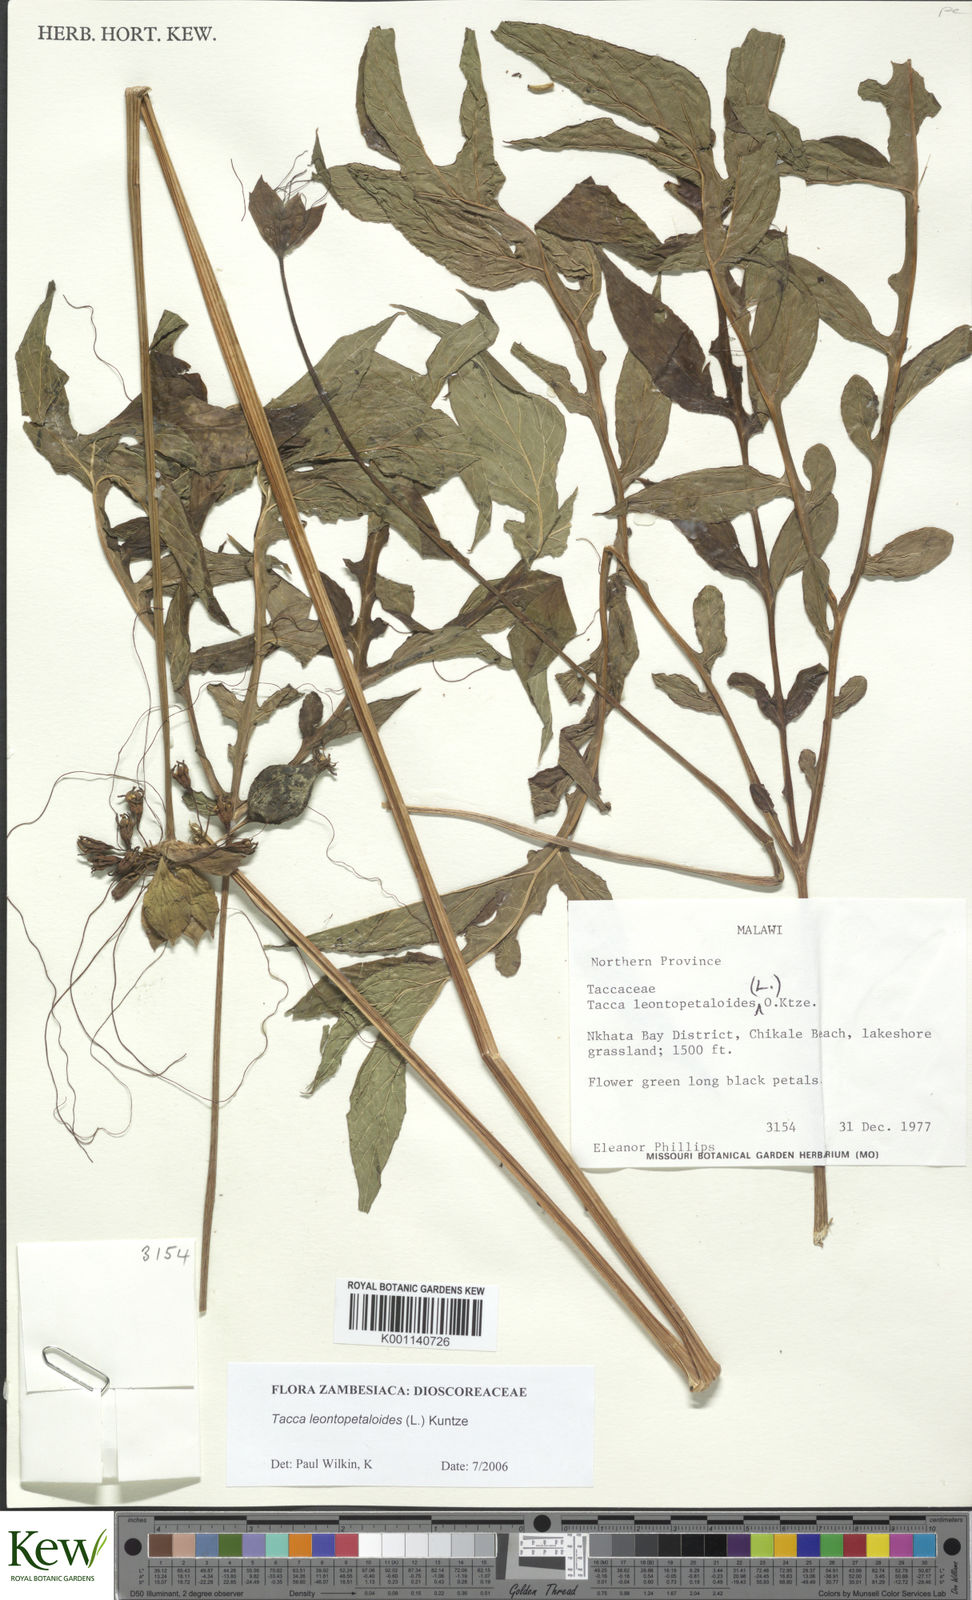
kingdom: Plantae
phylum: Tracheophyta
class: Liliopsida
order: Dioscoreales
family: Dioscoreaceae
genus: Tacca
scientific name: Tacca leontopetaloides
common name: Arrowroot
